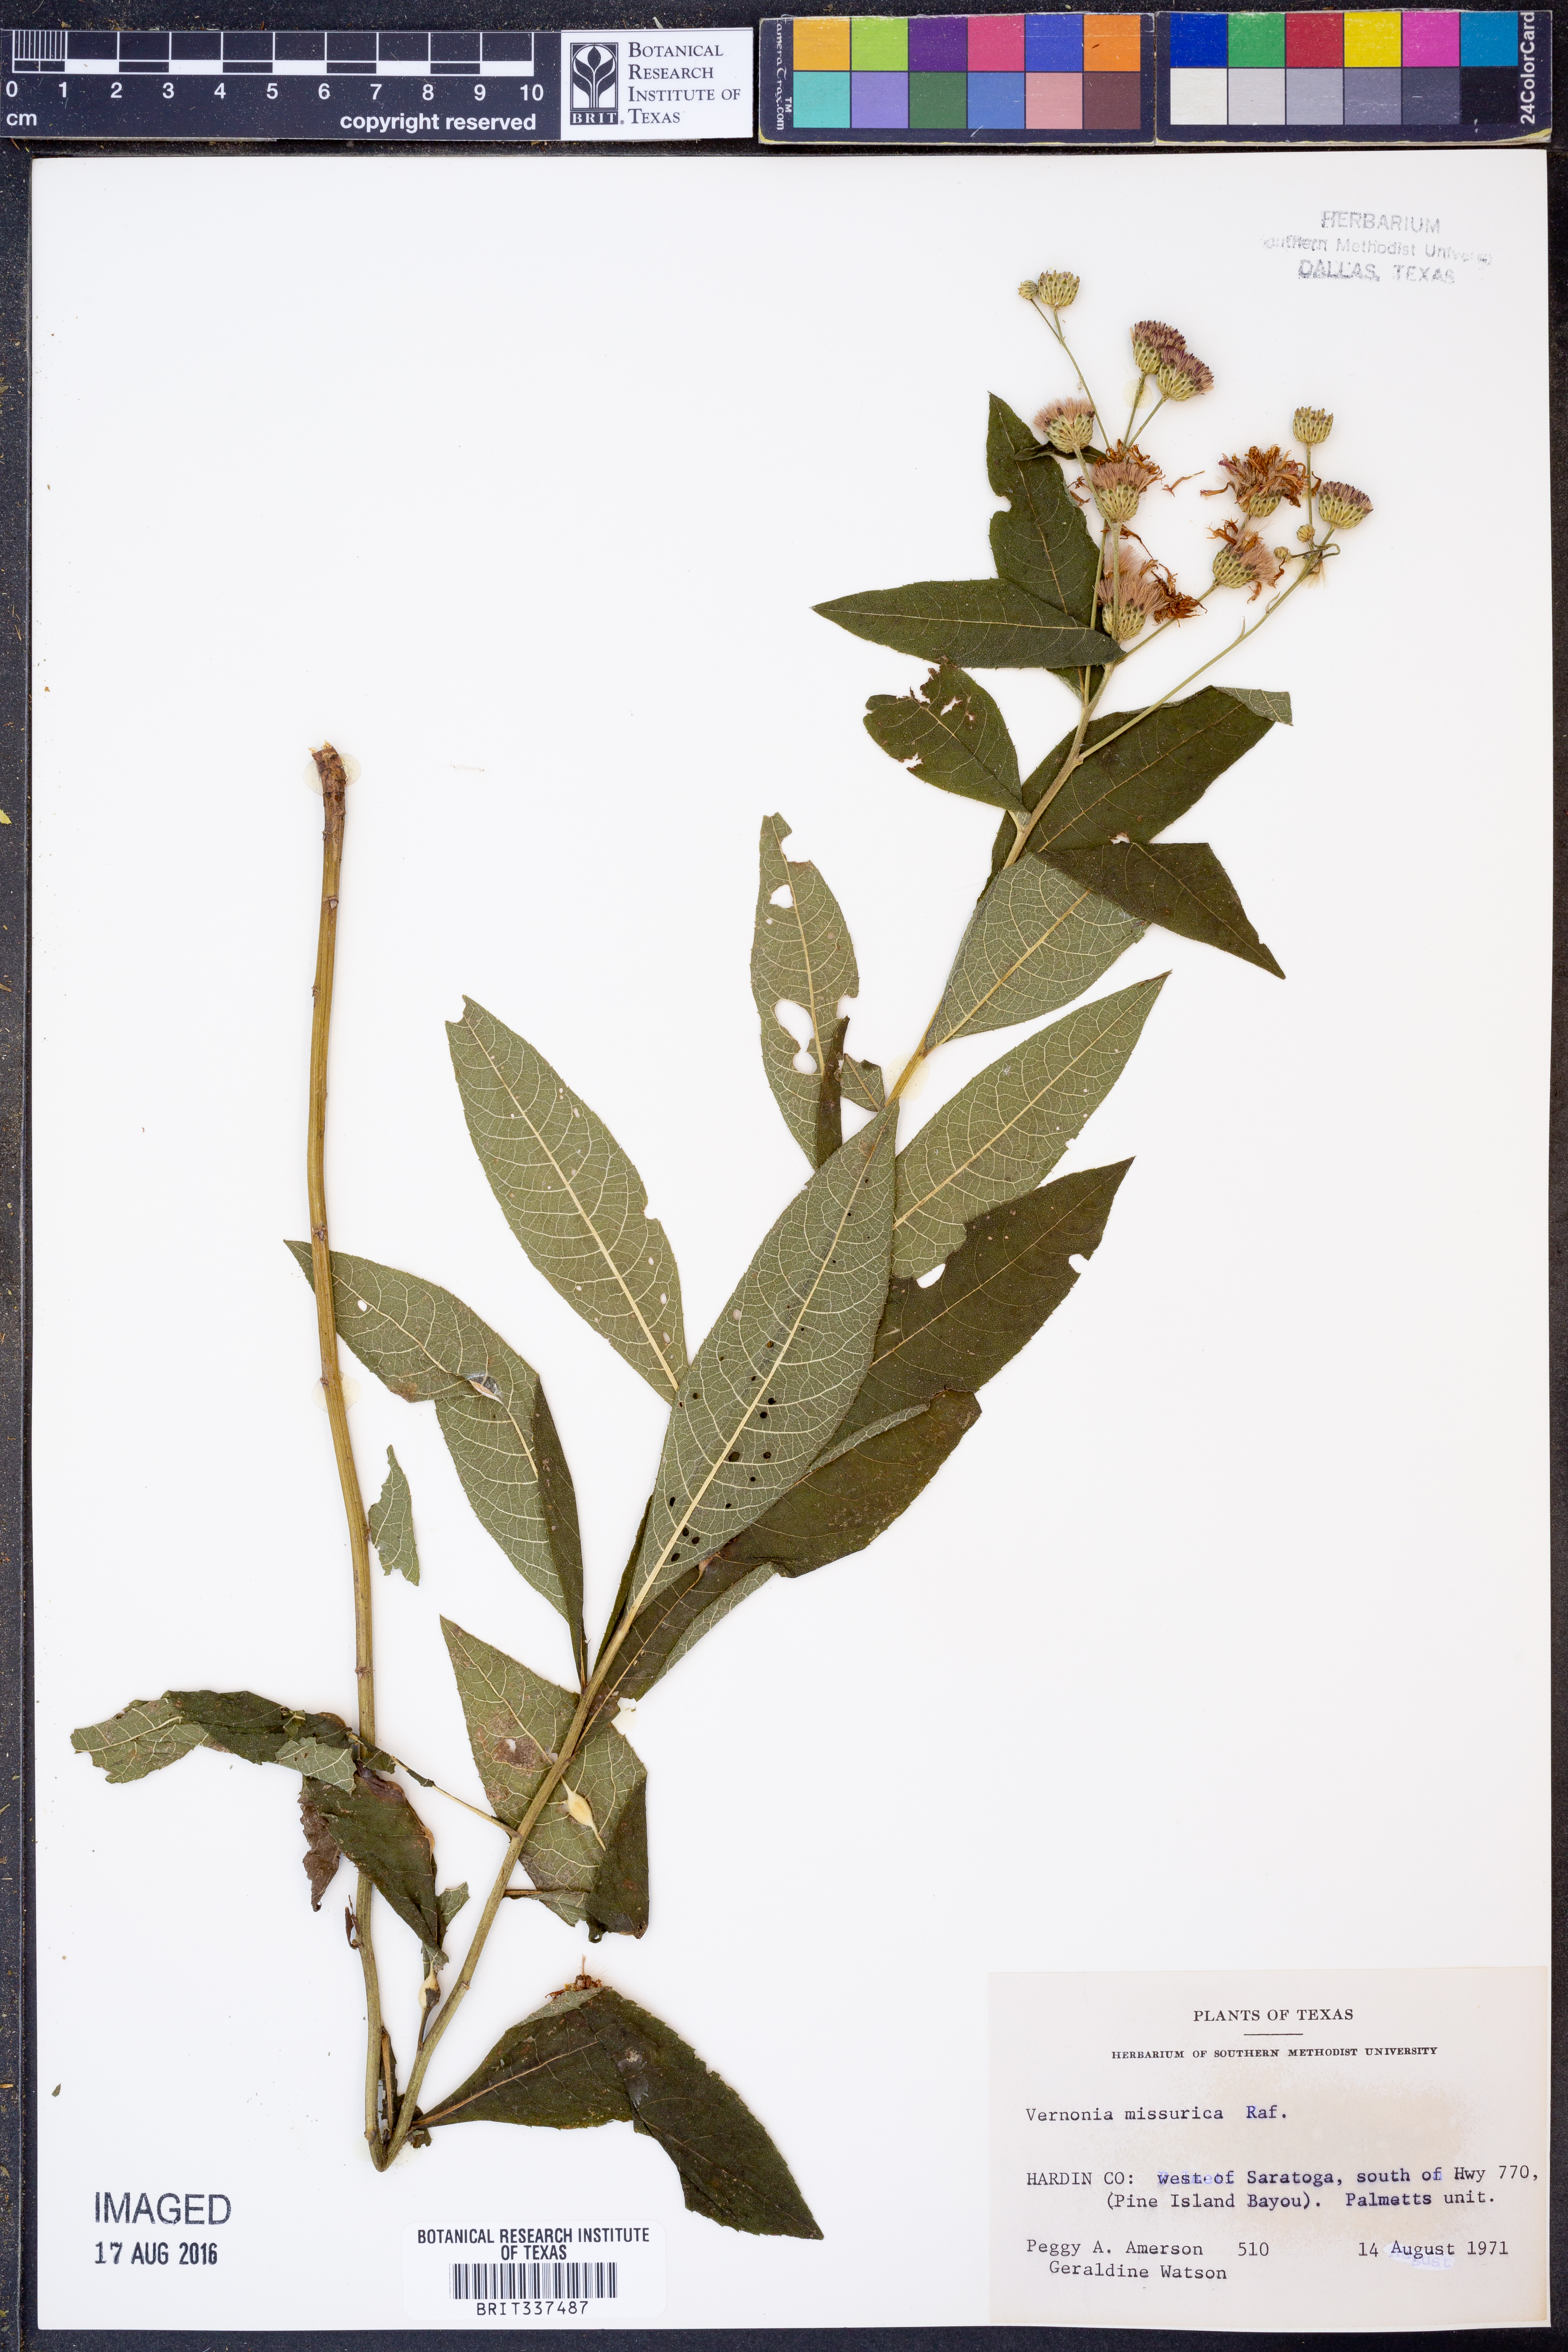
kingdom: Plantae
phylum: Tracheophyta
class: Magnoliopsida
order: Asterales
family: Asteraceae
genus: Vernonia
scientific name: Vernonia missurica
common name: Missouri ironweed
